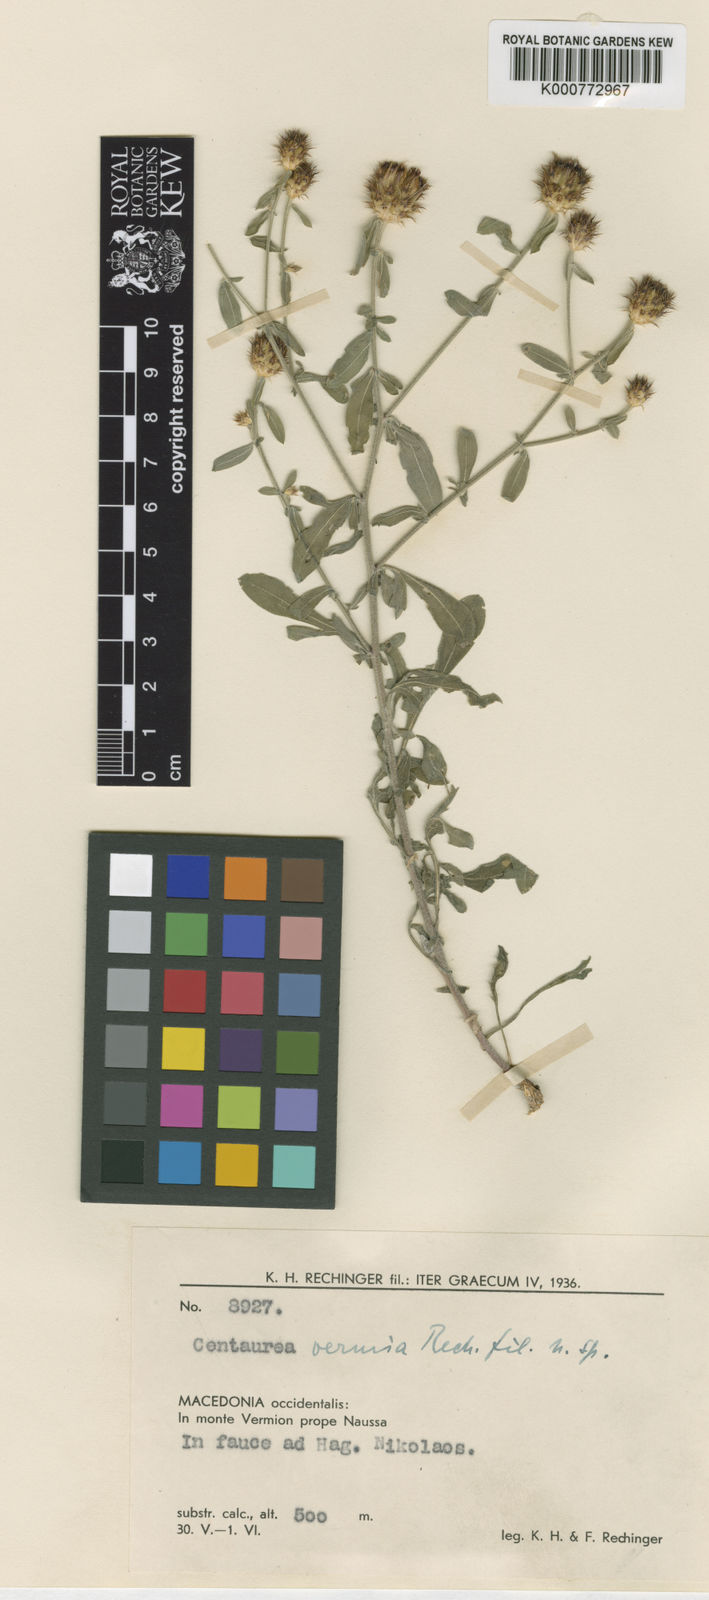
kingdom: Plantae
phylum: Tracheophyta
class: Magnoliopsida
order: Asterales
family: Asteraceae
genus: Centaurea
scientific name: Centaurea vermia
